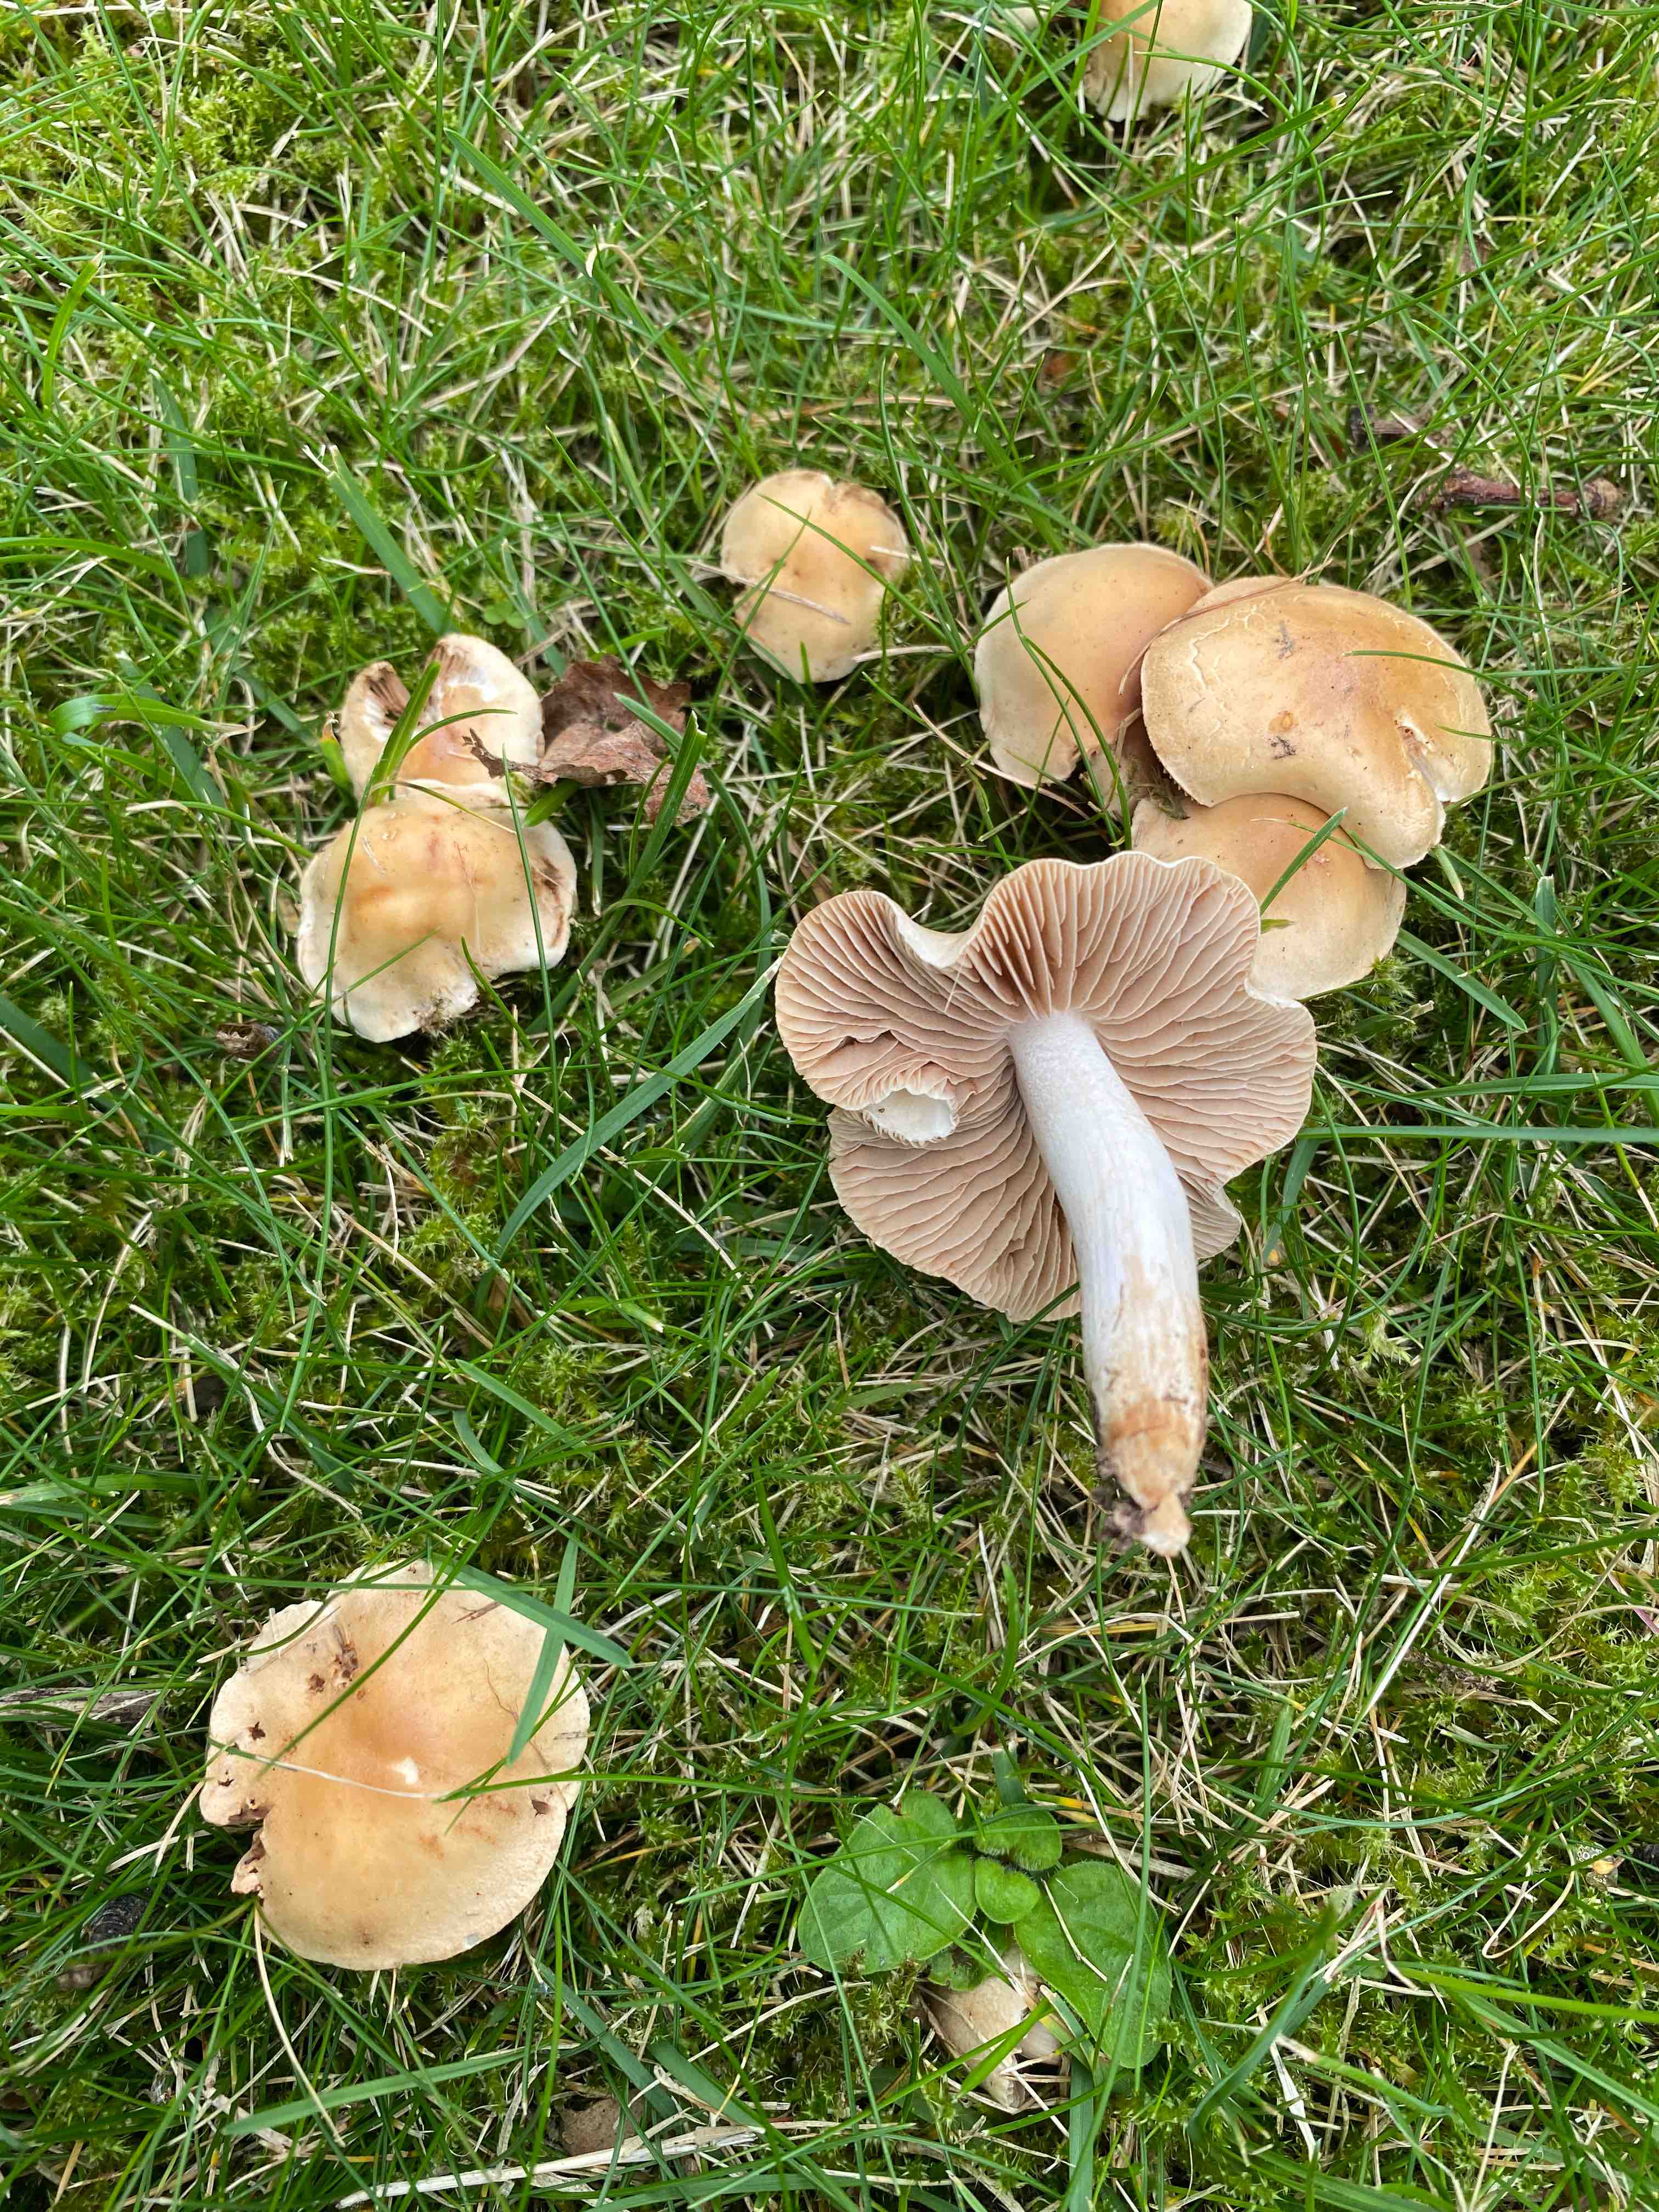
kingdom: Fungi
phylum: Basidiomycota
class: Agaricomycetes
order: Agaricales
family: Hymenogastraceae
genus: Hebeloma
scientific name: Hebeloma sacchariolens
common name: sødtduftende tåreblad
